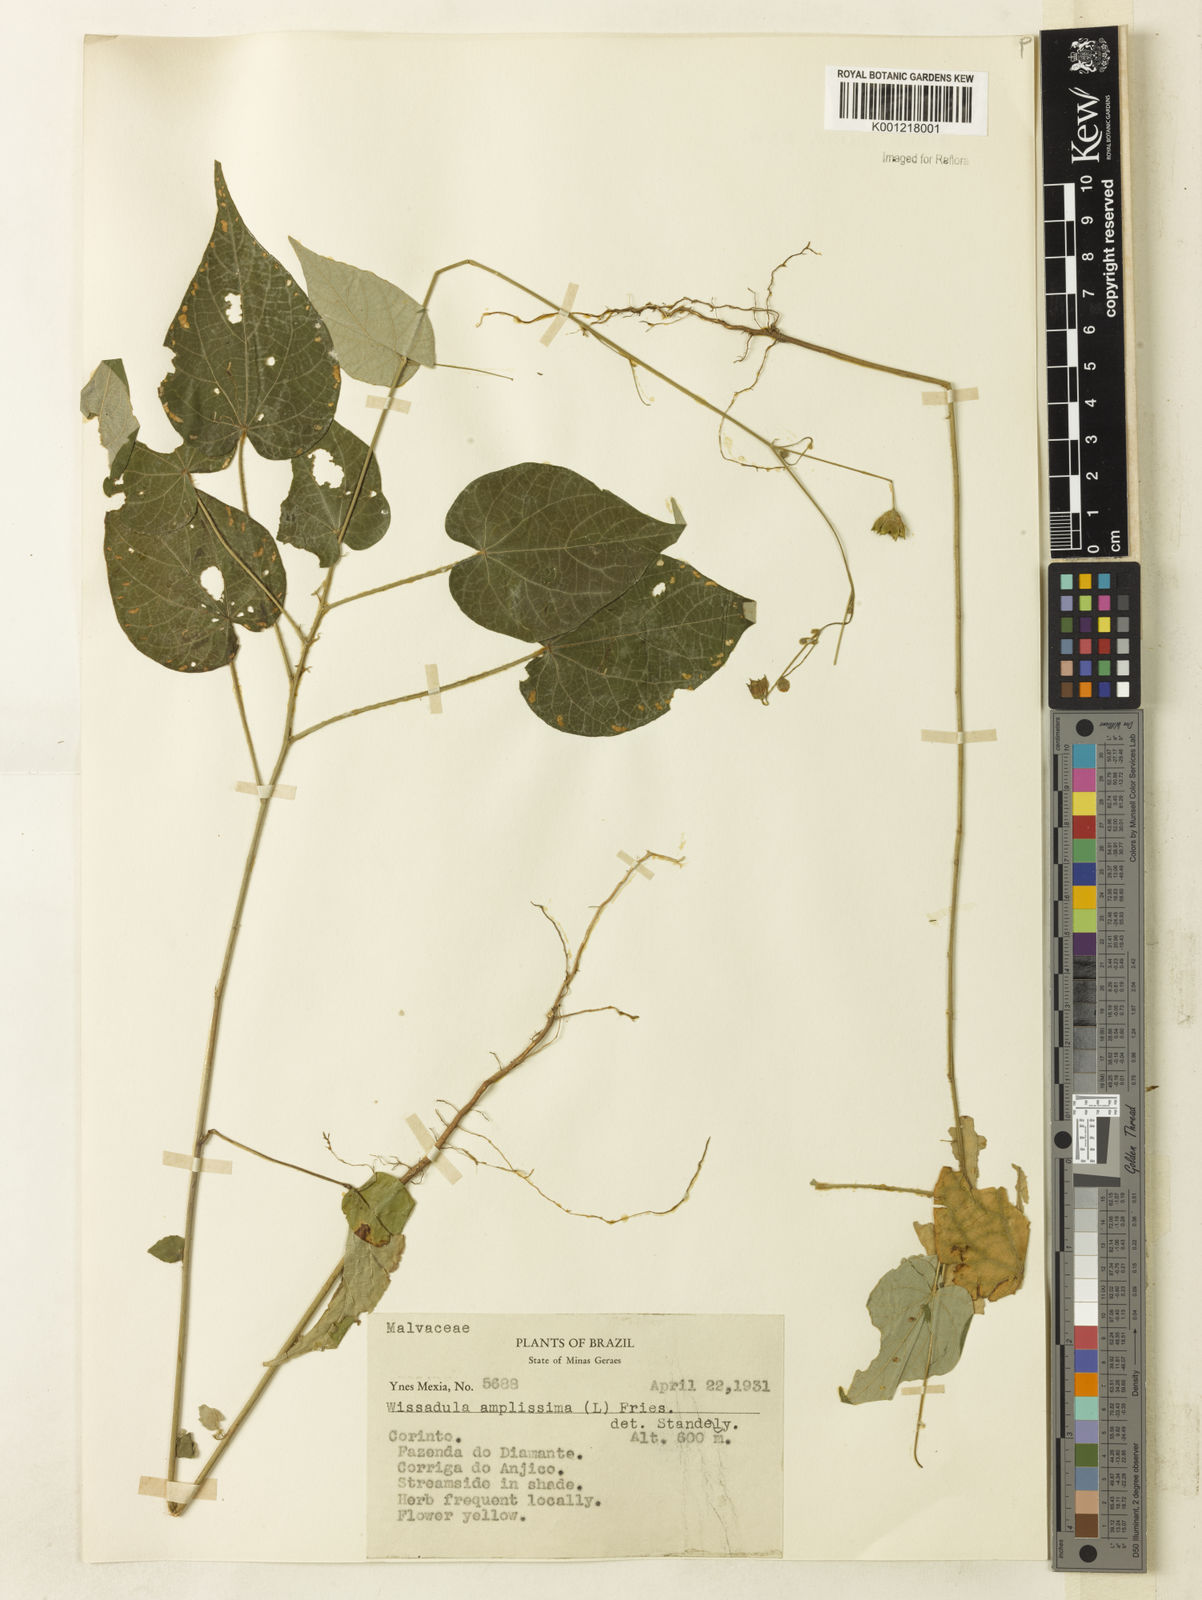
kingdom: Plantae
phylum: Tracheophyta
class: Magnoliopsida
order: Malvales
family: Malvaceae
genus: Wissadula
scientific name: Wissadula amplissima
